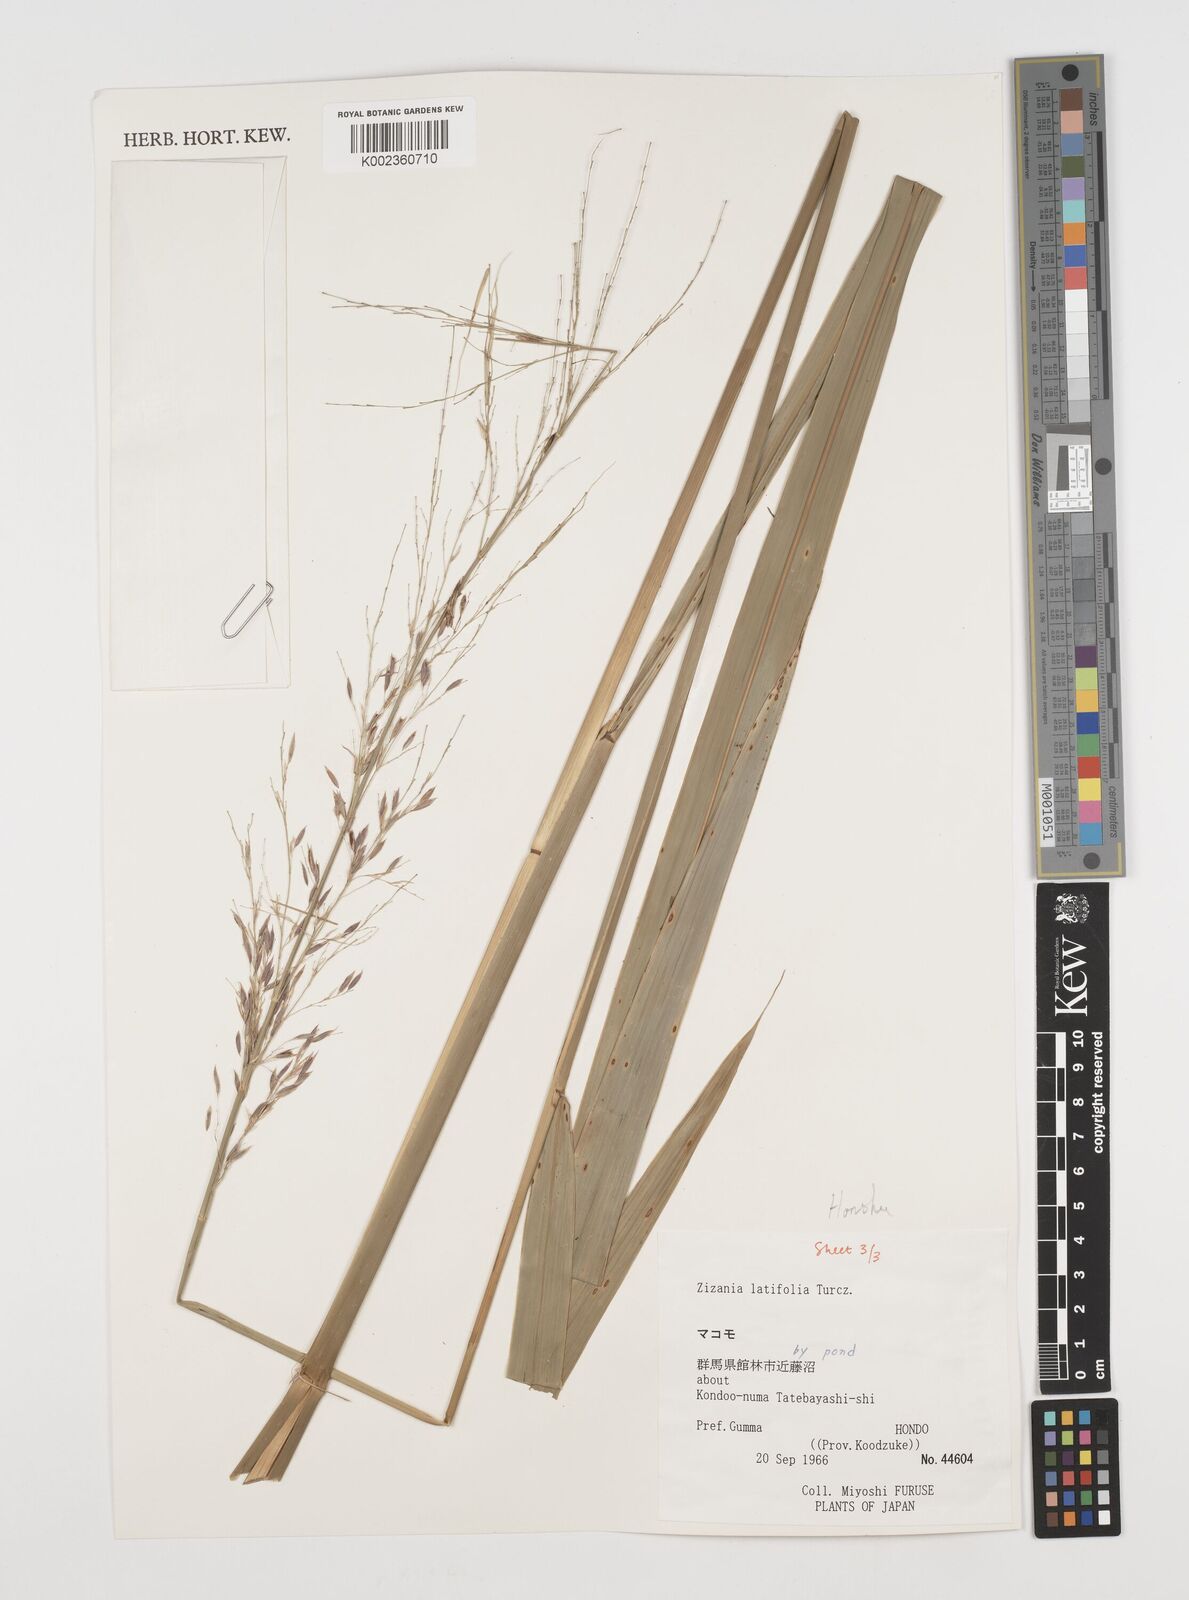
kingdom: Plantae
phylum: Tracheophyta
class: Liliopsida
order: Poales
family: Poaceae
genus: Zizania
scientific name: Zizania latifolia
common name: Manchurian wildrice
